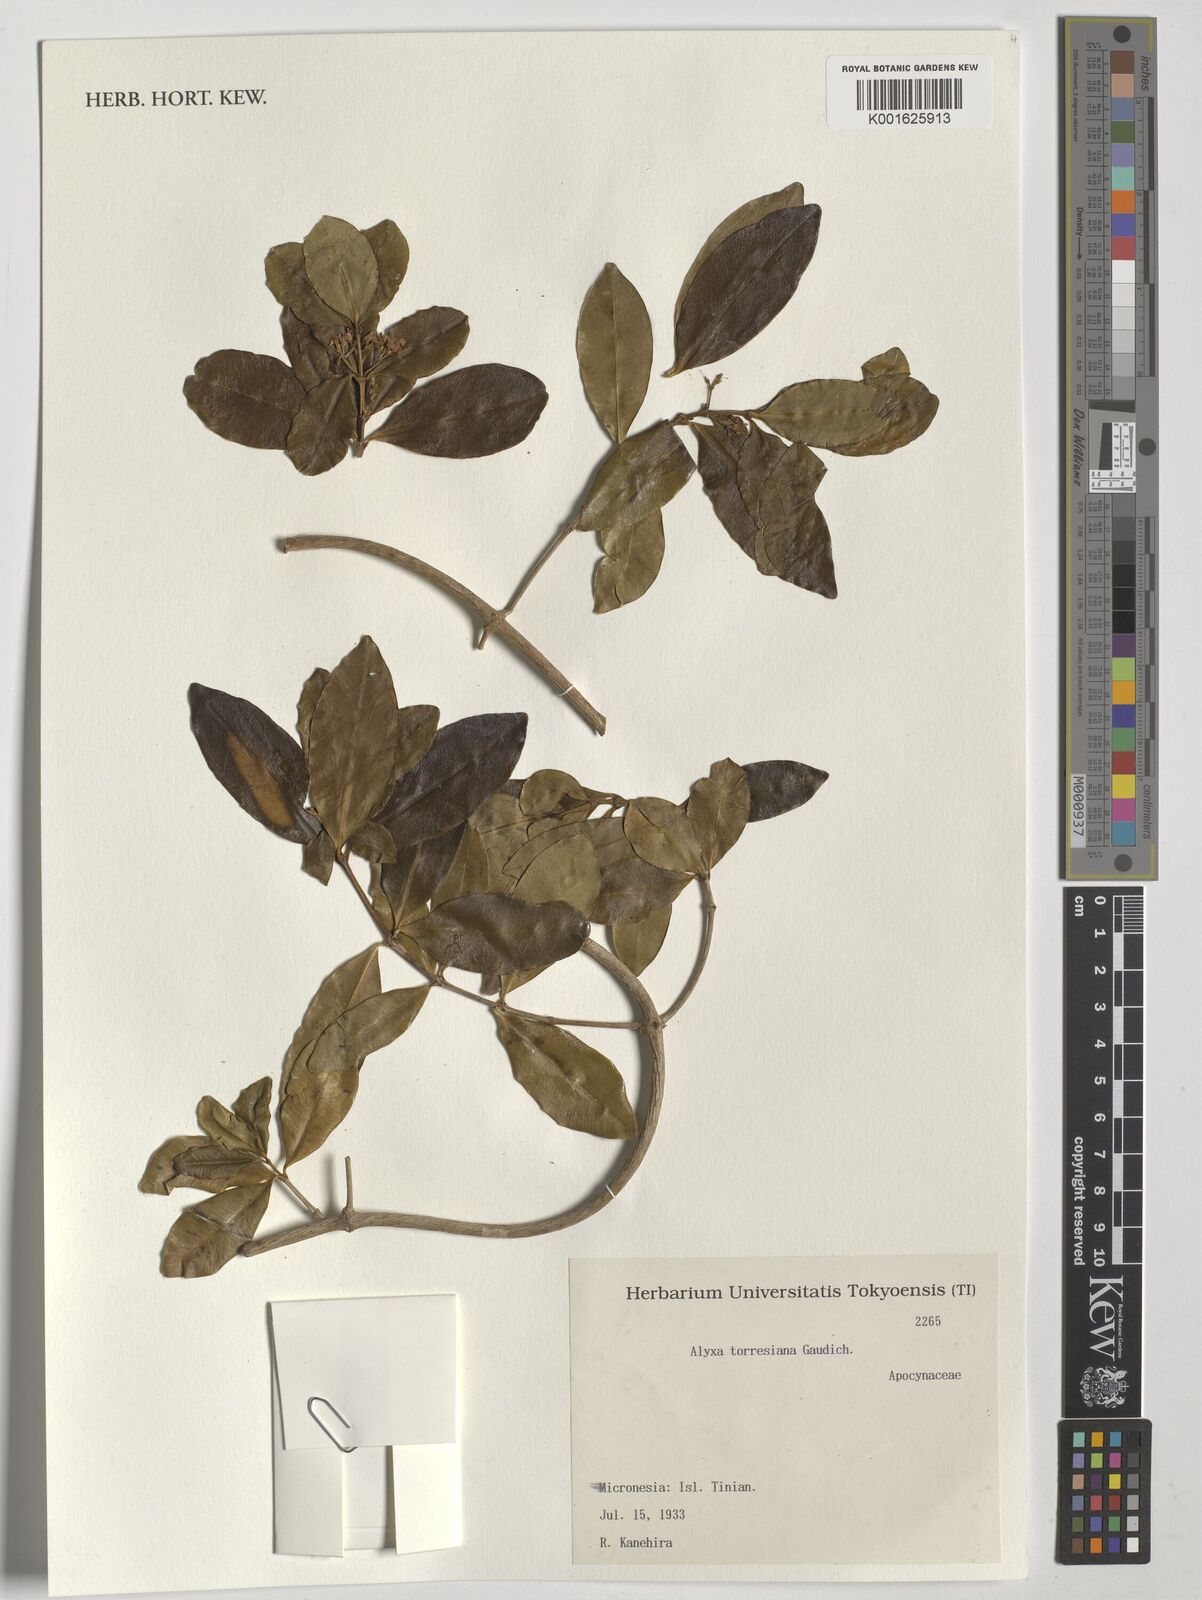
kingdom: Plantae
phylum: Tracheophyta
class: Magnoliopsida
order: Gentianales
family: Apocynaceae
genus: Alyxia
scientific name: Alyxia stellata
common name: Maile
